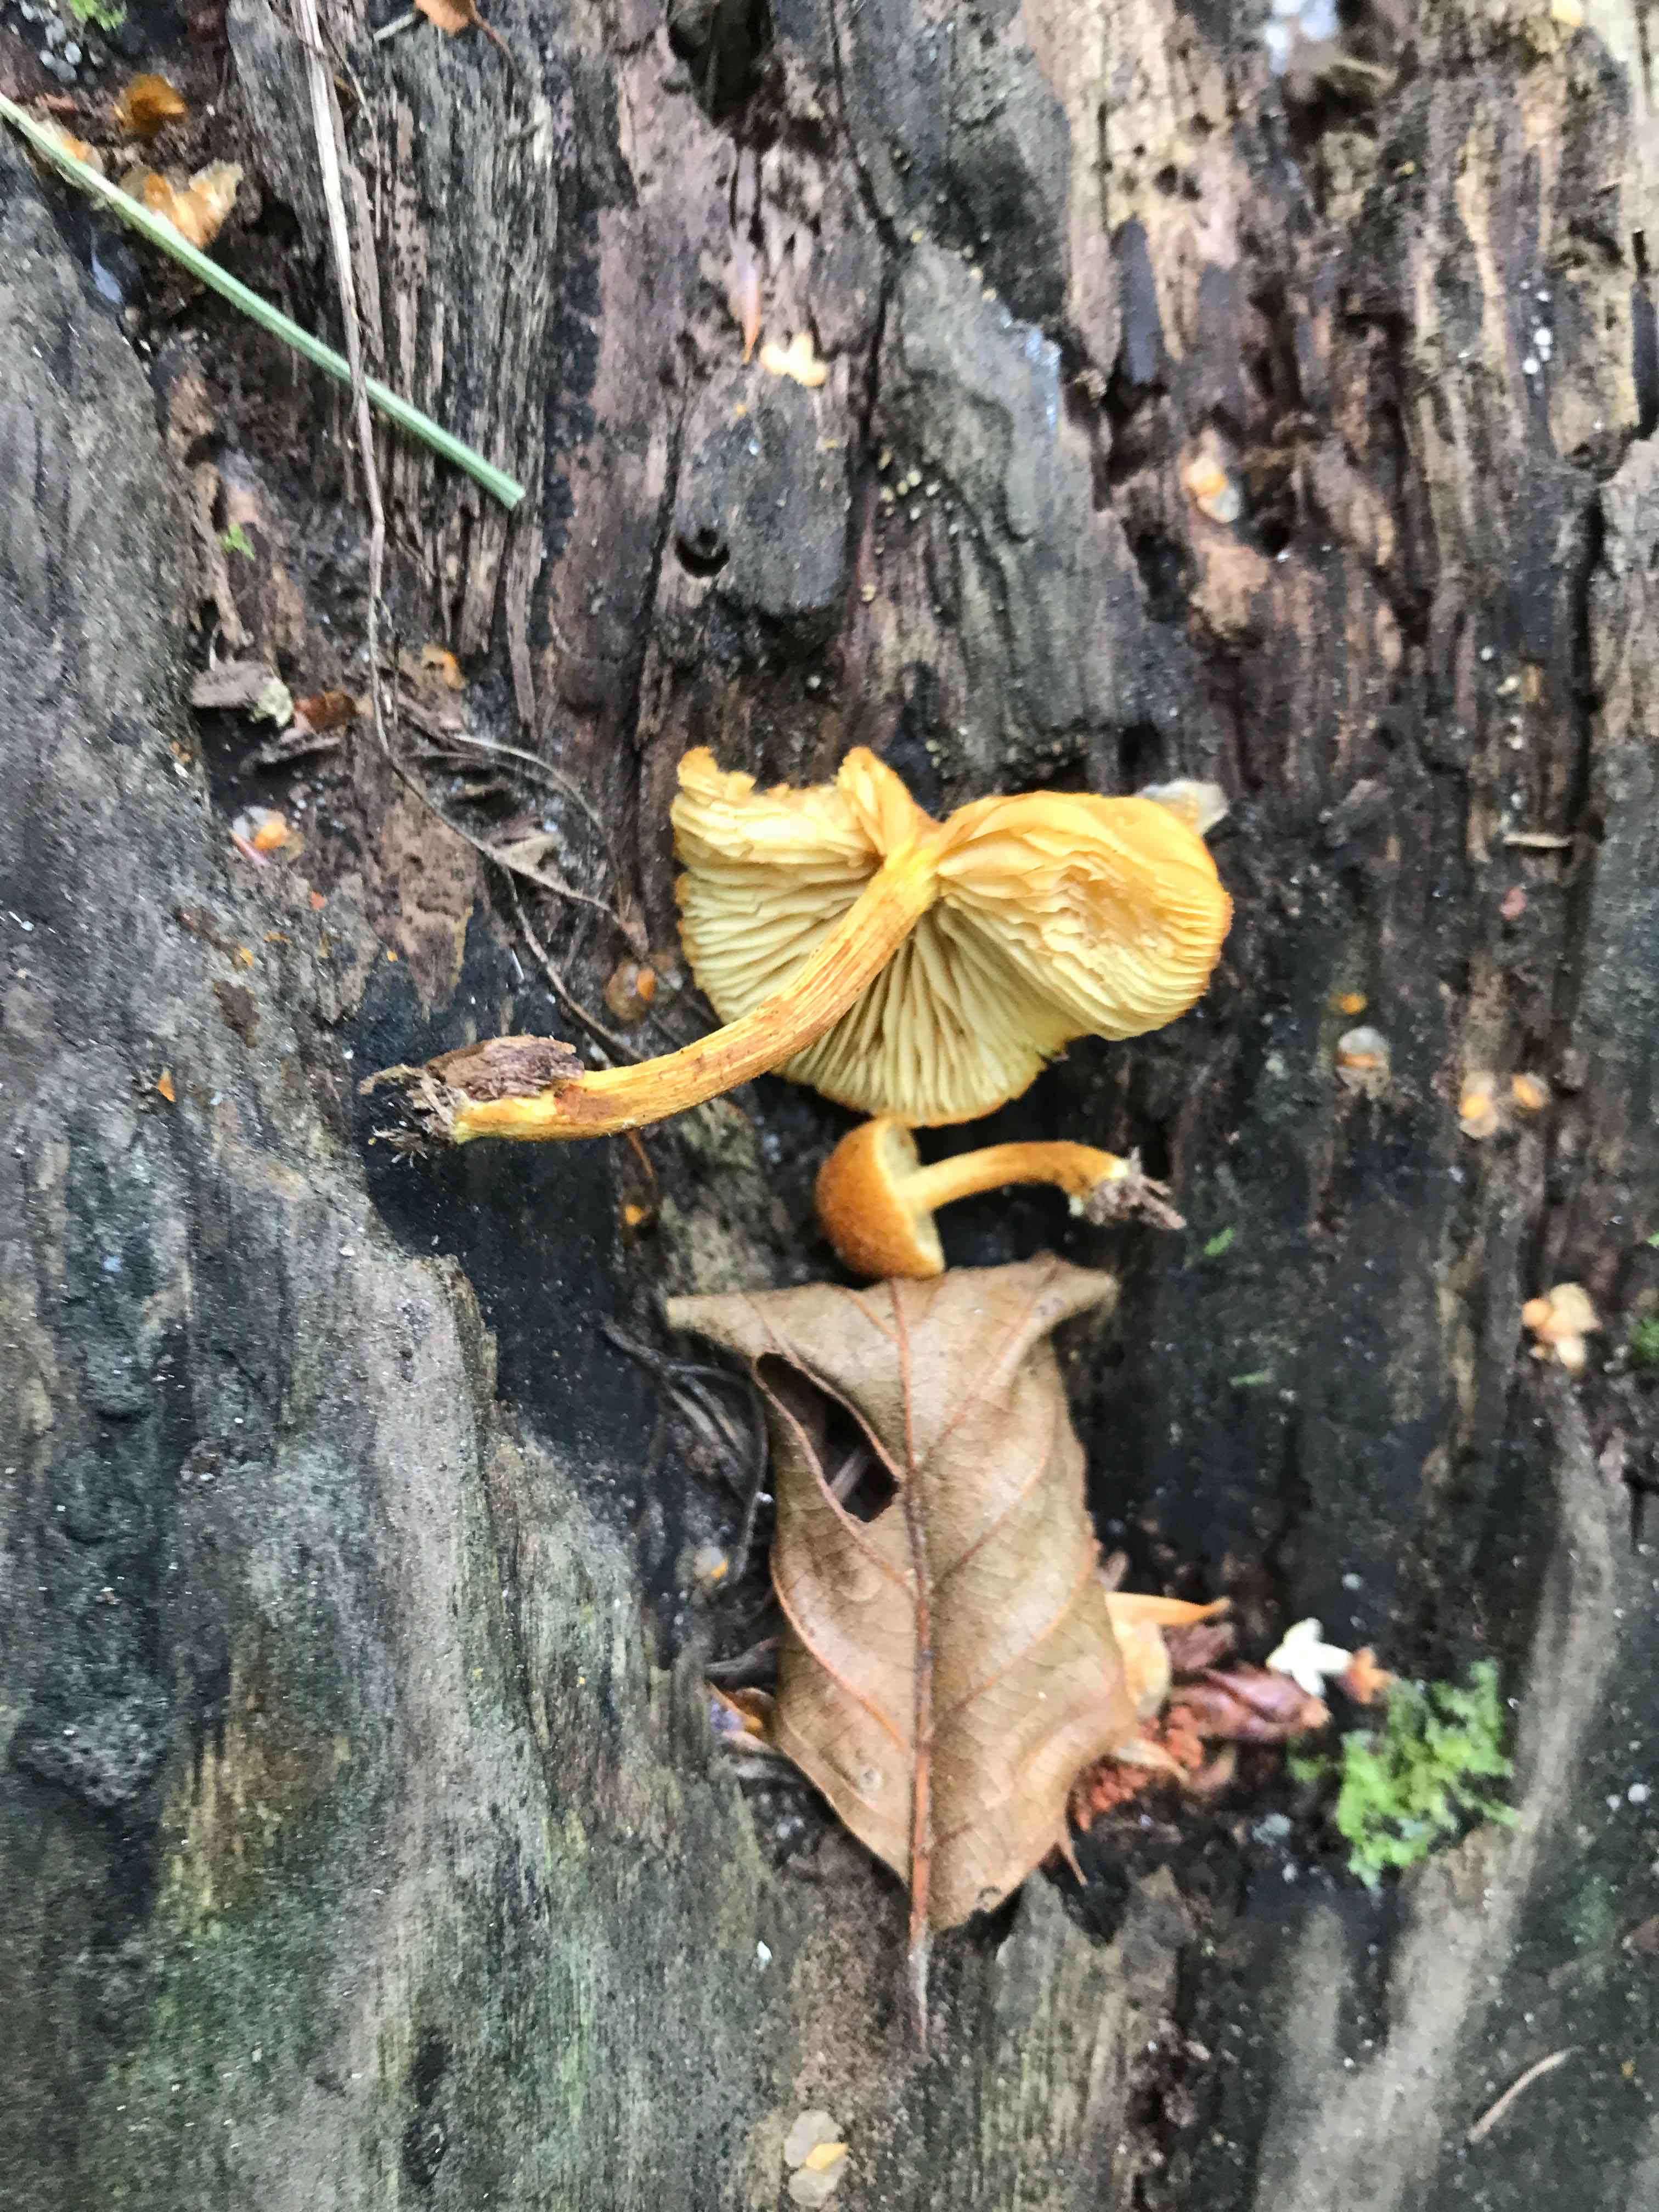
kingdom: Fungi
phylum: Basidiomycota
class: Agaricomycetes
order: Agaricales
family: Tubariaceae
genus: Flammulaster
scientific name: Flammulaster limulatus
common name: gylden grynskælhat
